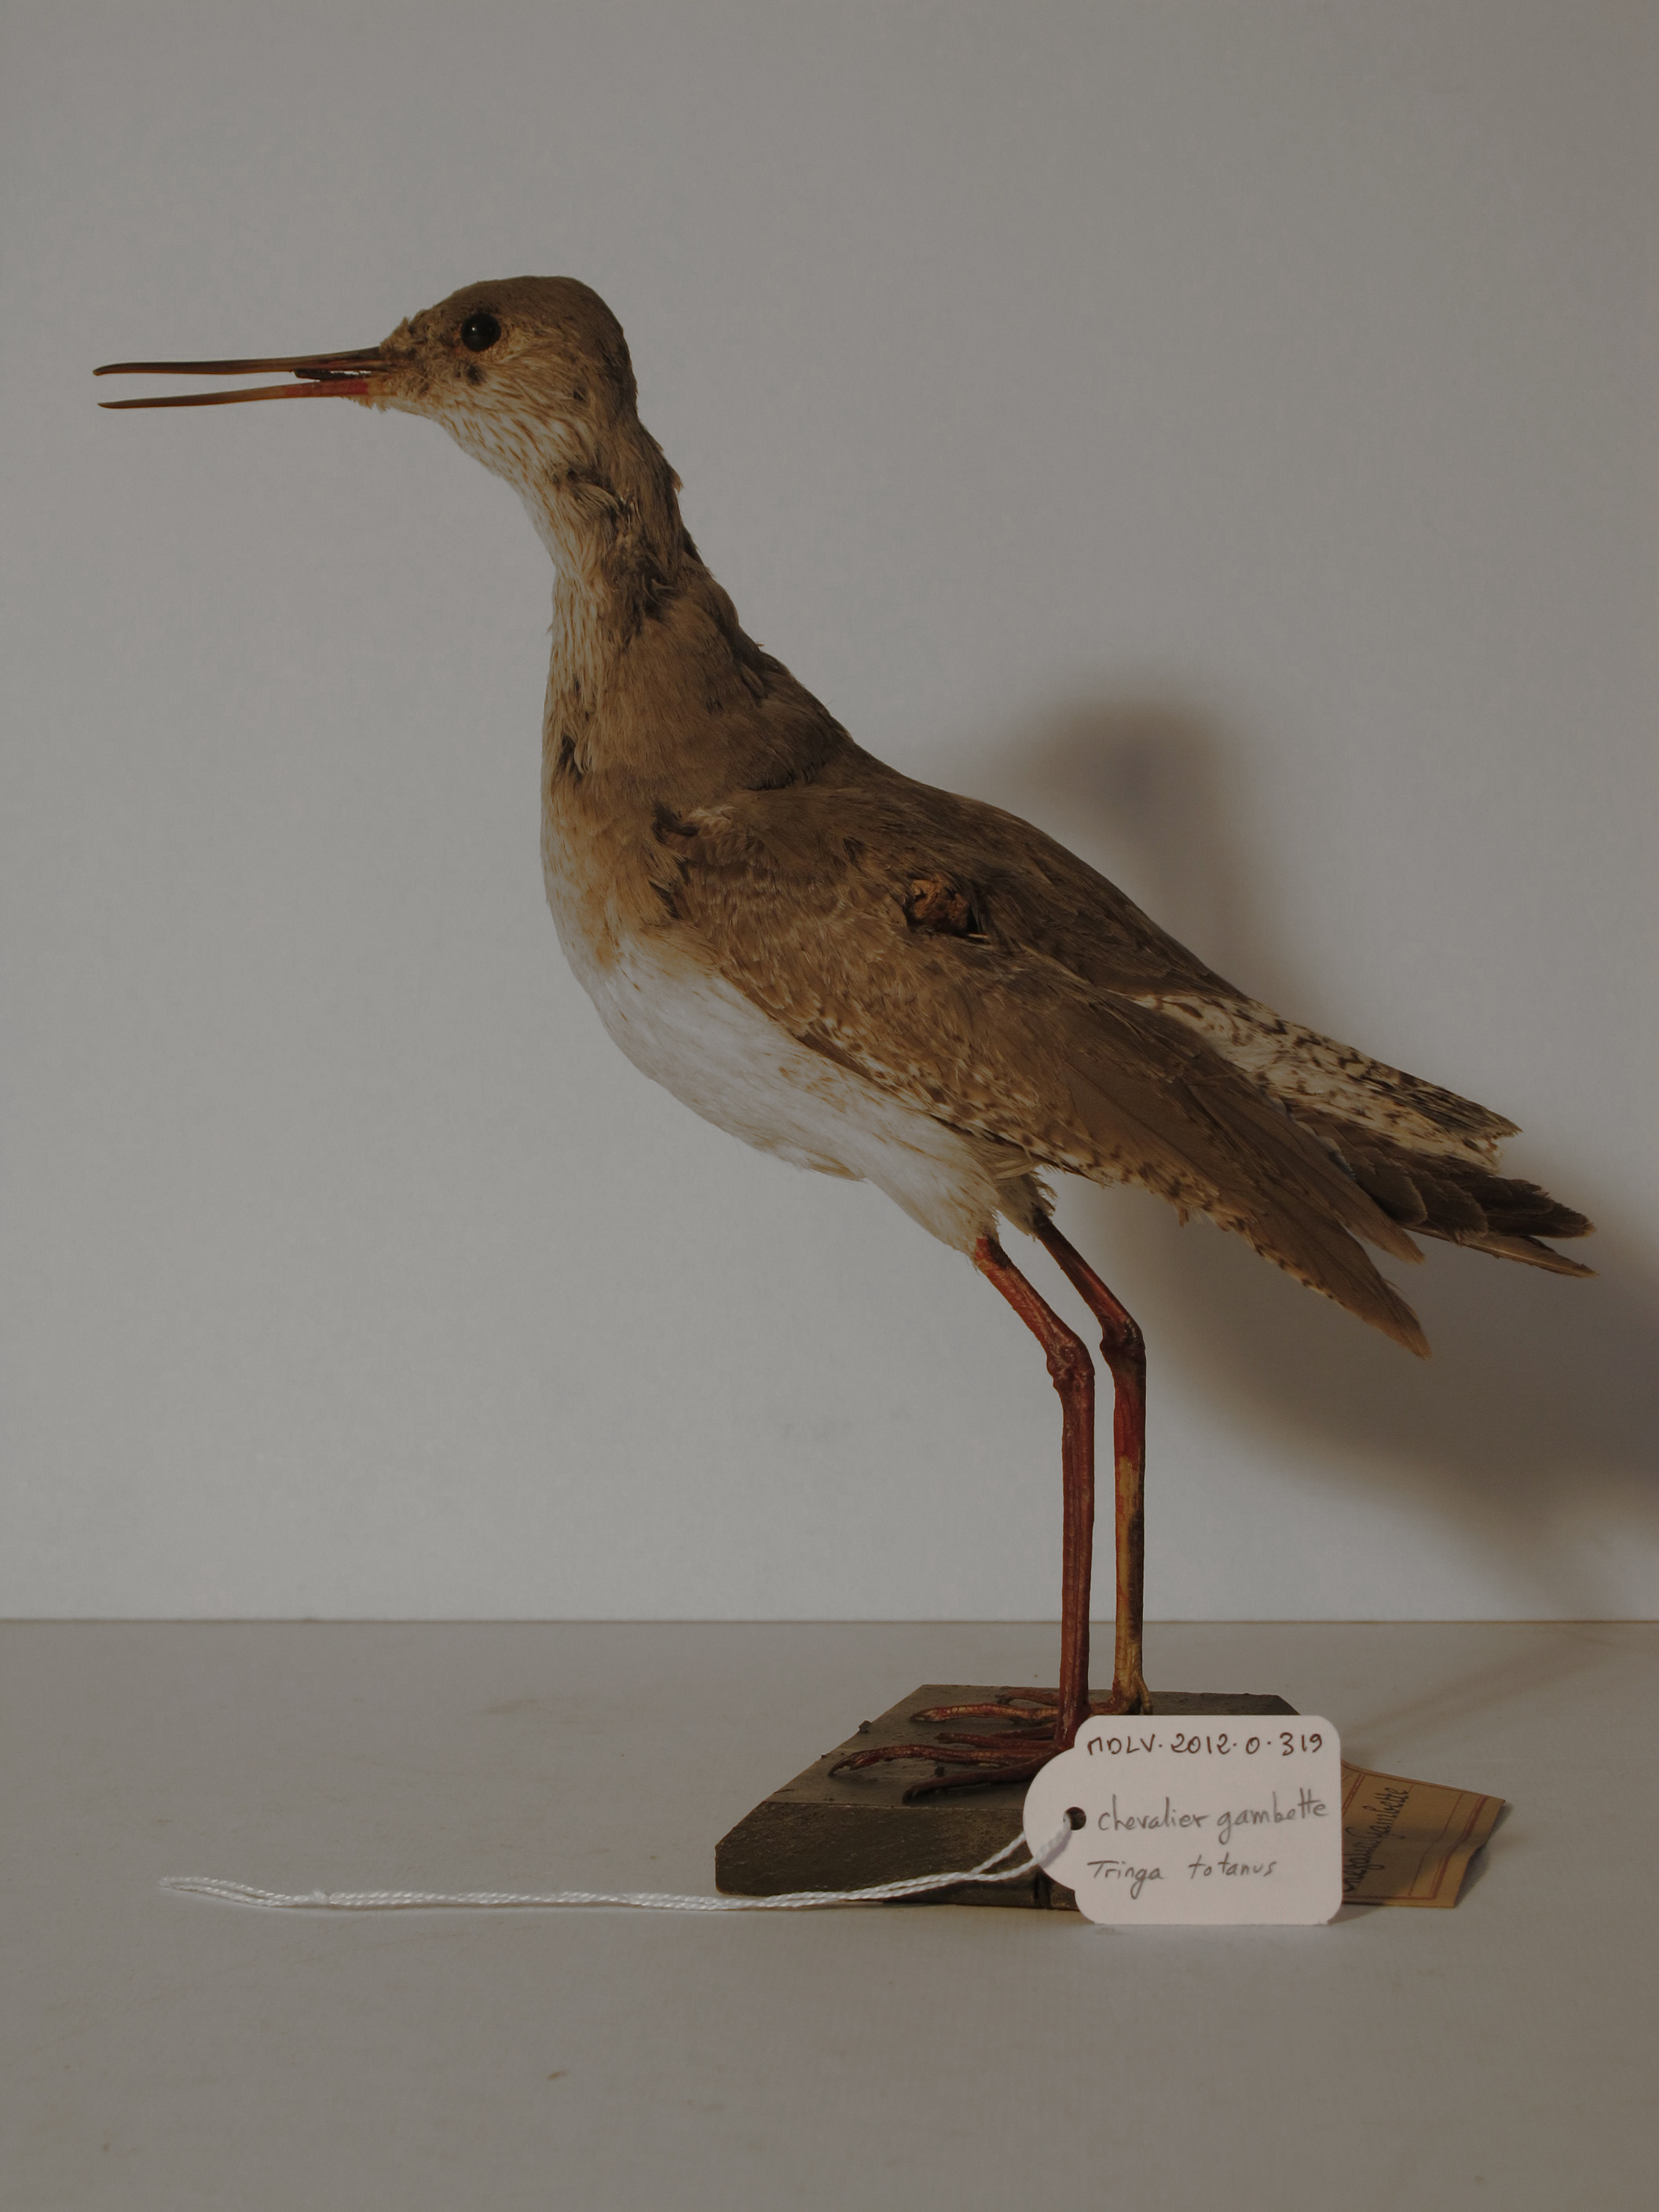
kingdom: Animalia
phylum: Chordata
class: Aves
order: Charadriiformes
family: Scolopacidae
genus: Tringa
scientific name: Tringa totanus
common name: Common Redshank
